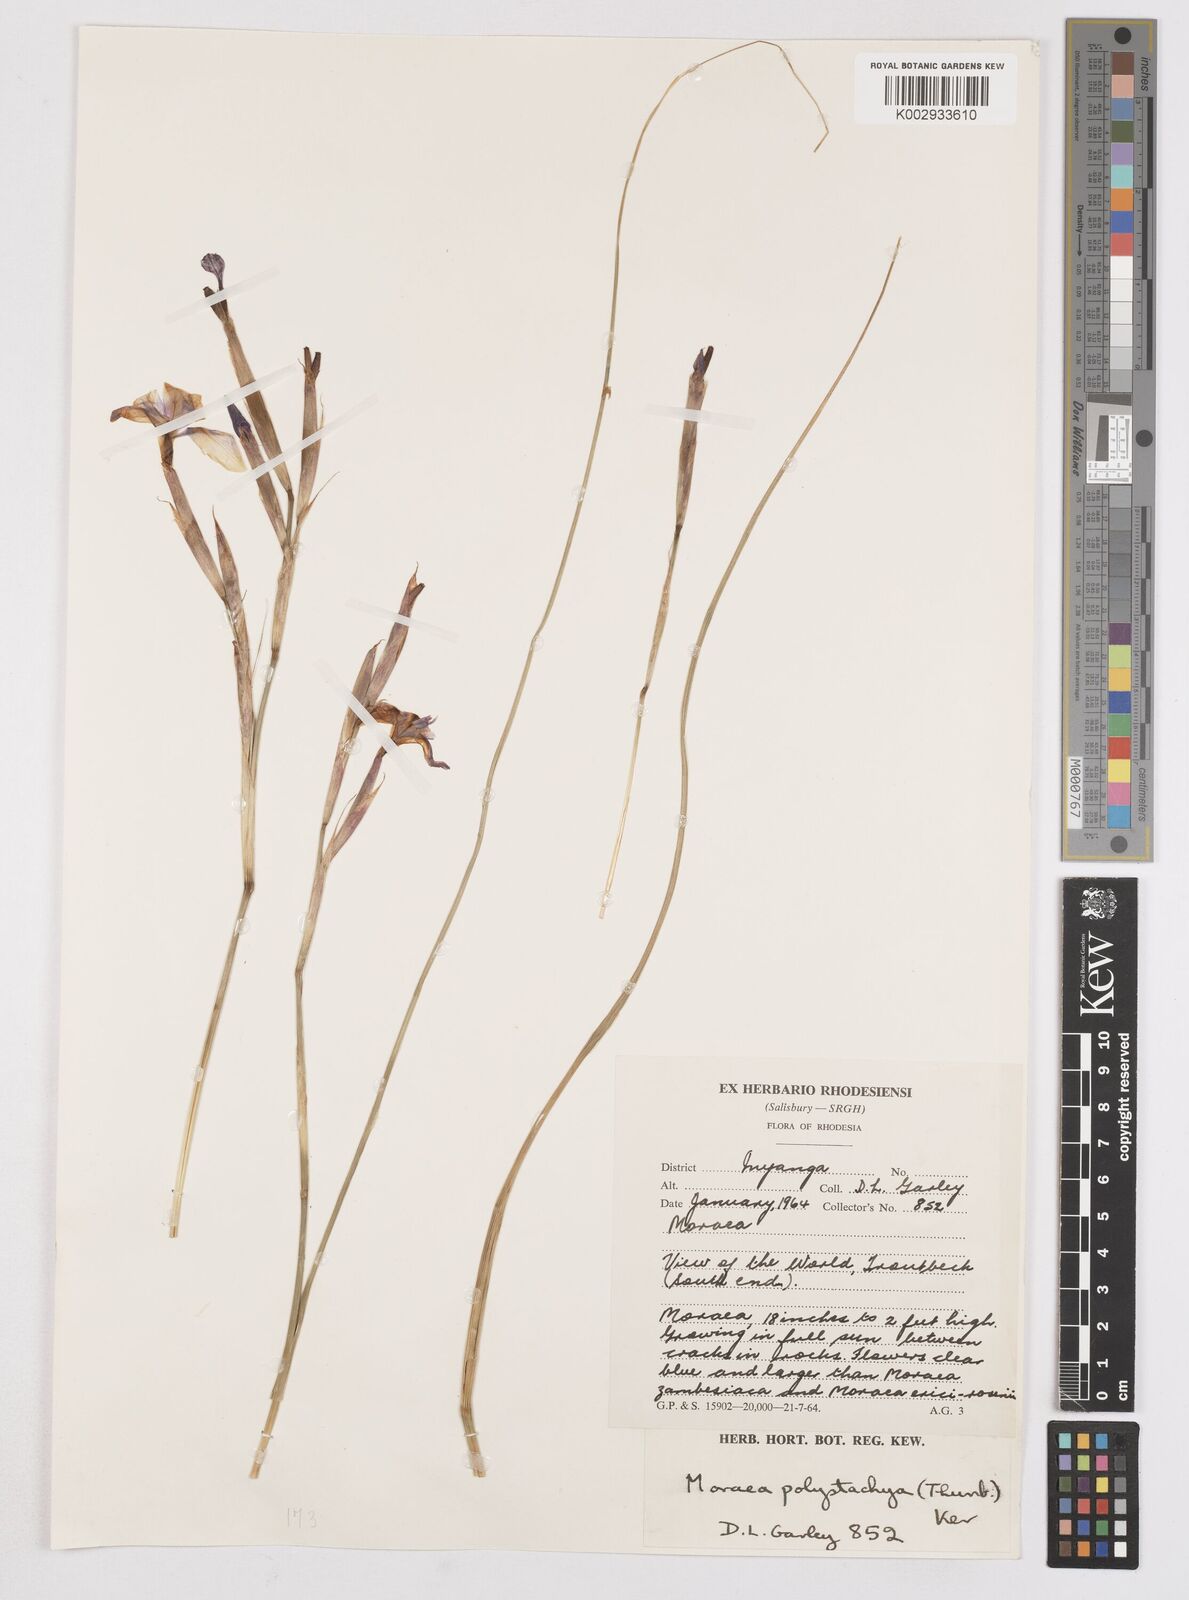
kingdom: Plantae
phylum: Tracheophyta
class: Liliopsida
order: Asparagales
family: Iridaceae
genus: Moraea
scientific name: Moraea carsonii
